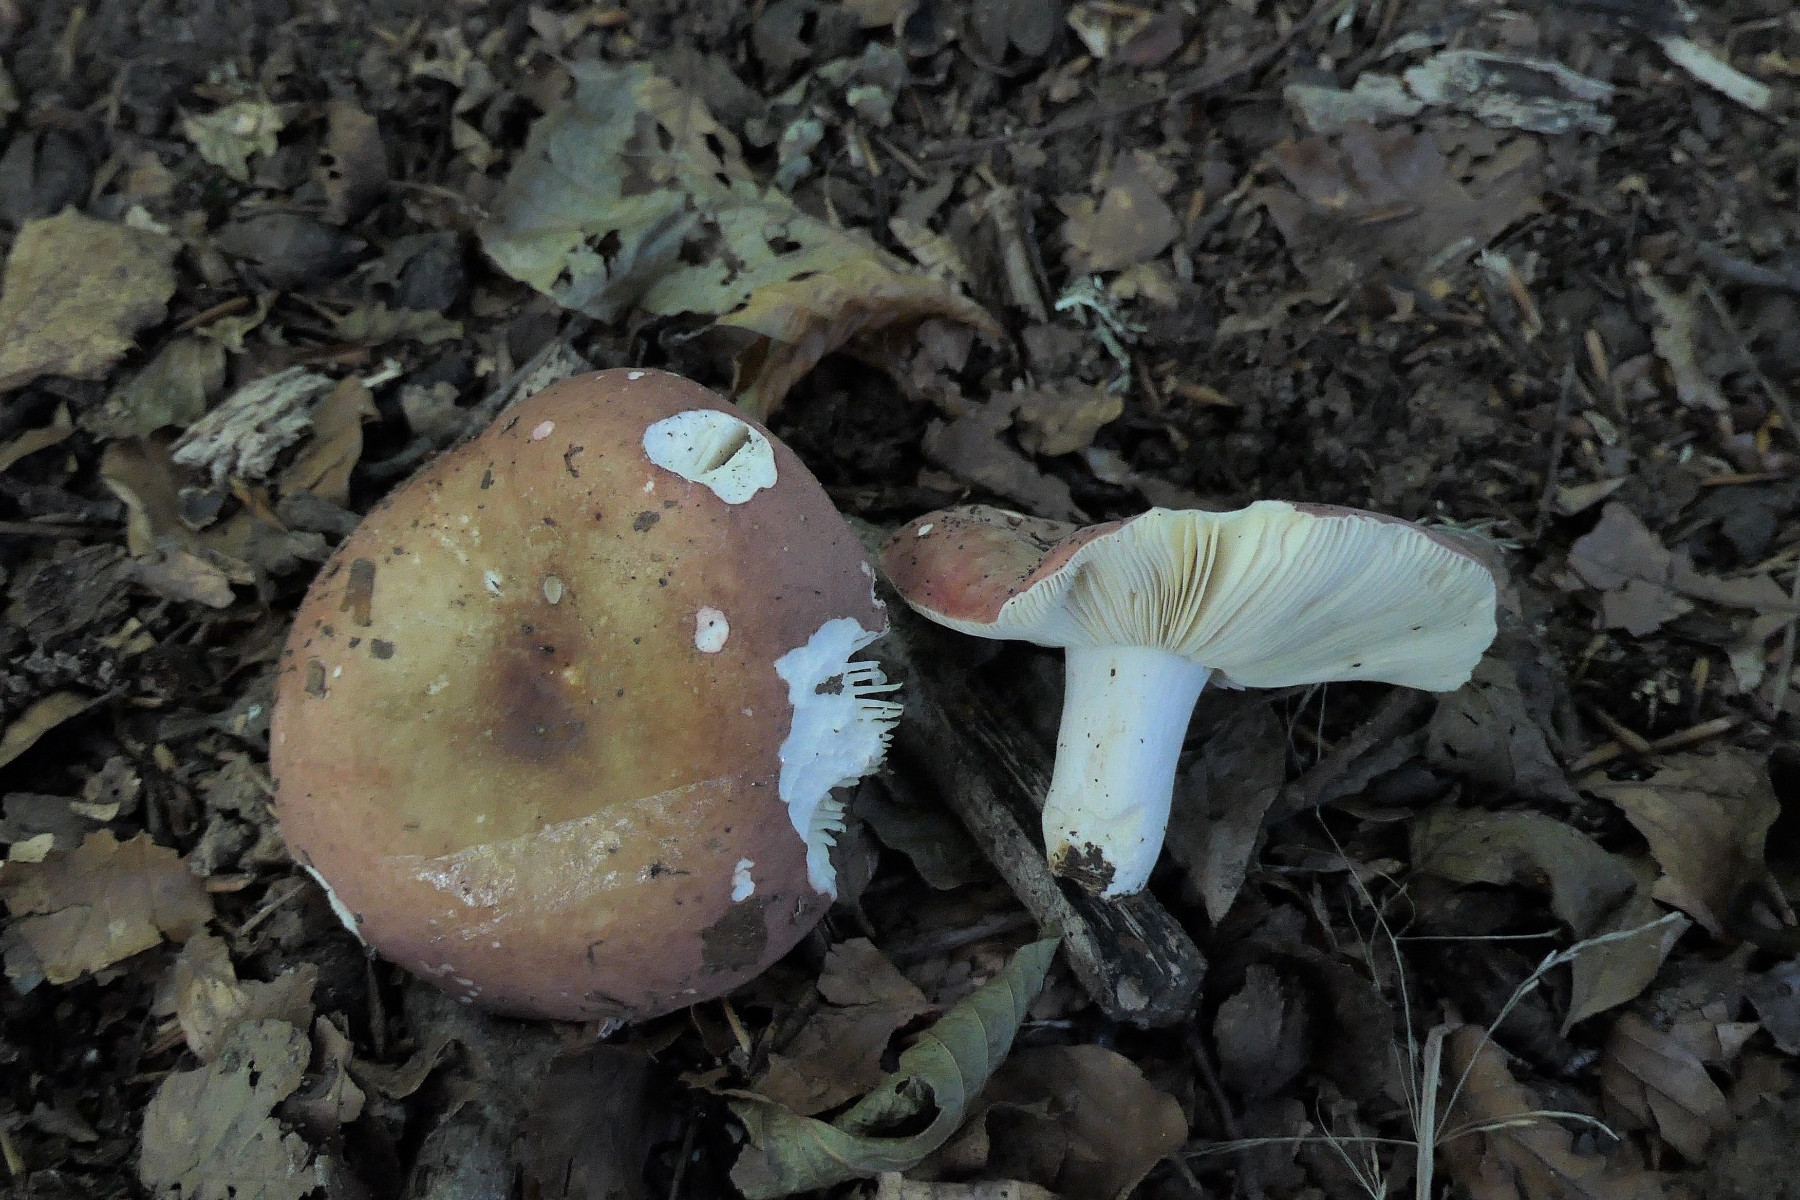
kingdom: Fungi
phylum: Basidiomycota
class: Agaricomycetes
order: Russulales
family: Russulaceae
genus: Russula
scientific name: Russula curtipes
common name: kortstokket skørhat
